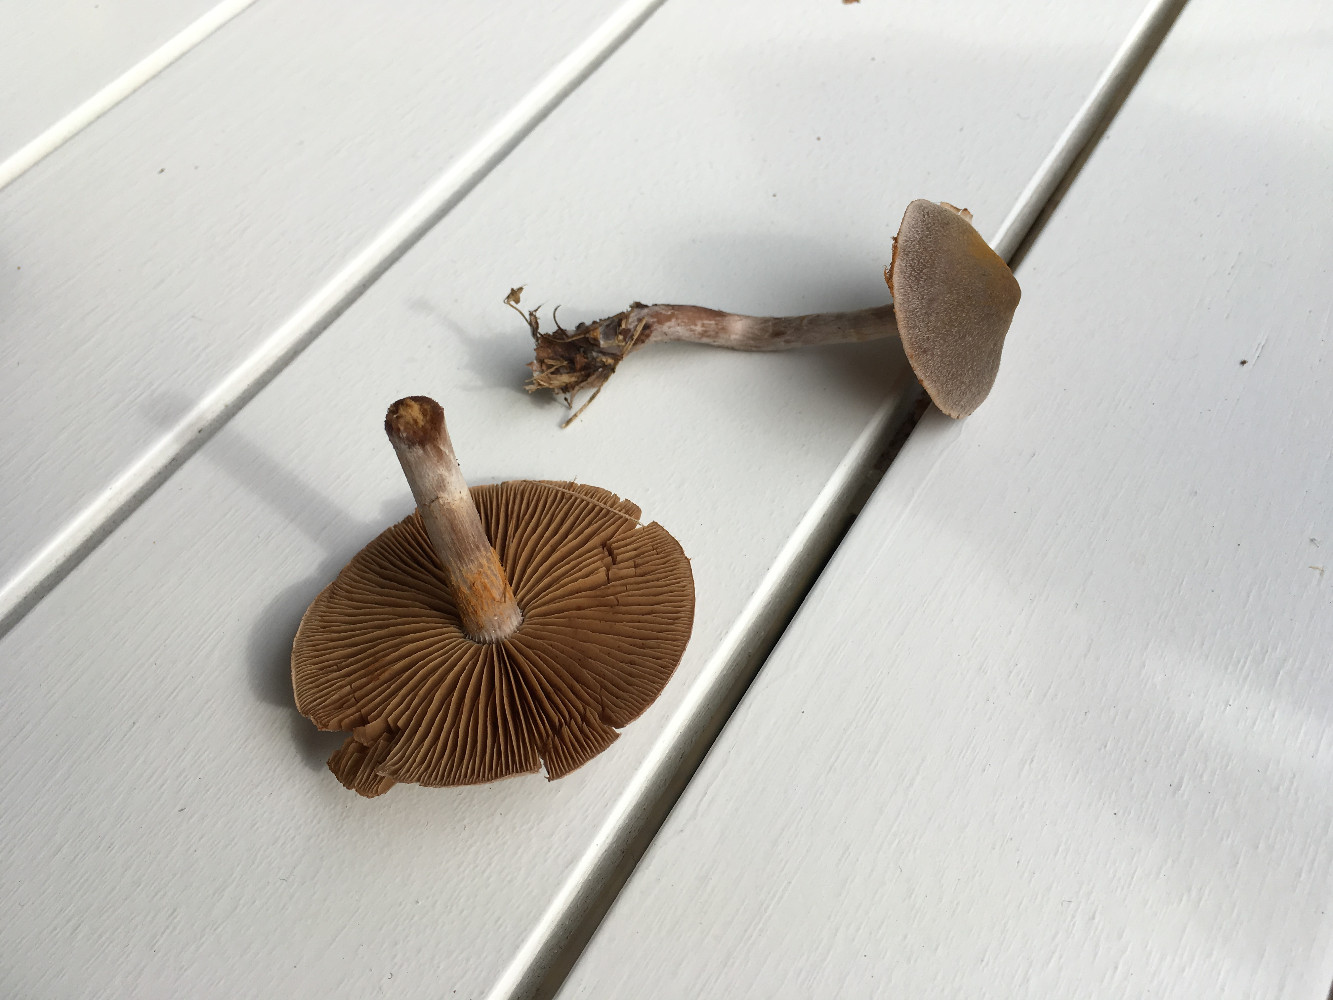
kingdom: Fungi
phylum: Basidiomycota
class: Agaricomycetes
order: Agaricales
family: Cortinariaceae
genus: Cortinarius
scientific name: Cortinarius
